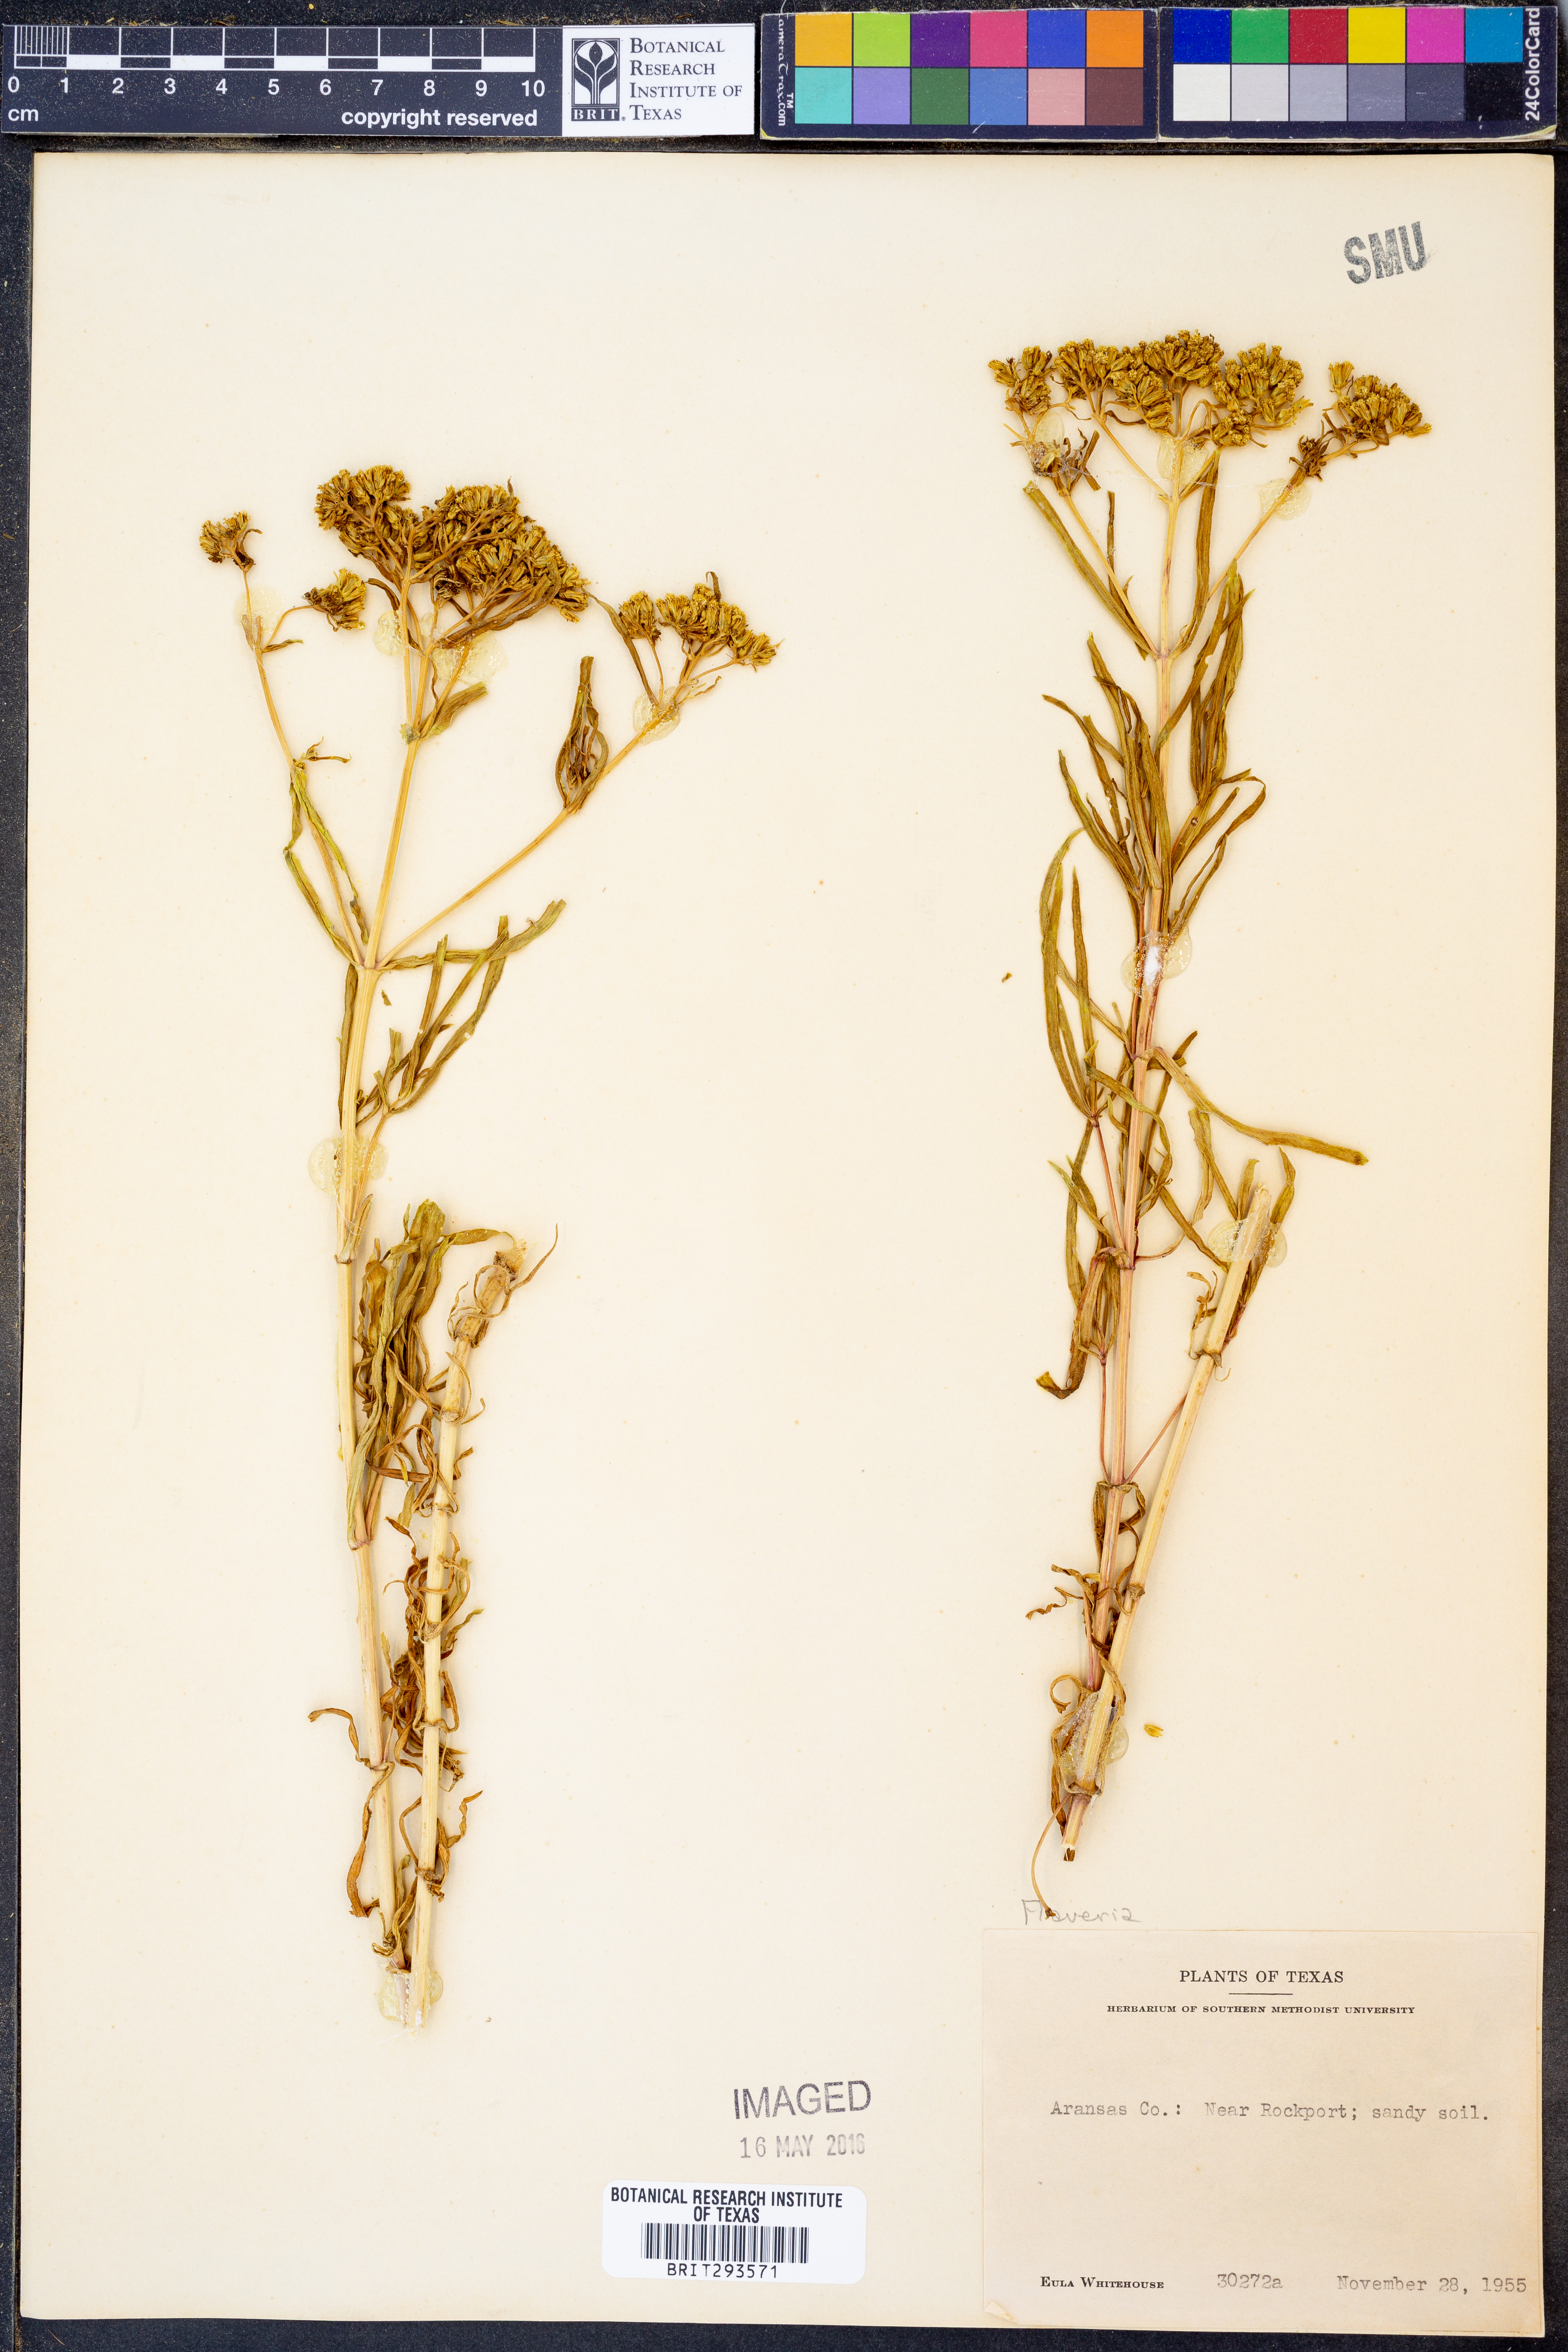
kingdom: Plantae
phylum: Tracheophyta
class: Magnoliopsida
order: Asterales
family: Asteraceae
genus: Flaveria
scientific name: Flaveria
